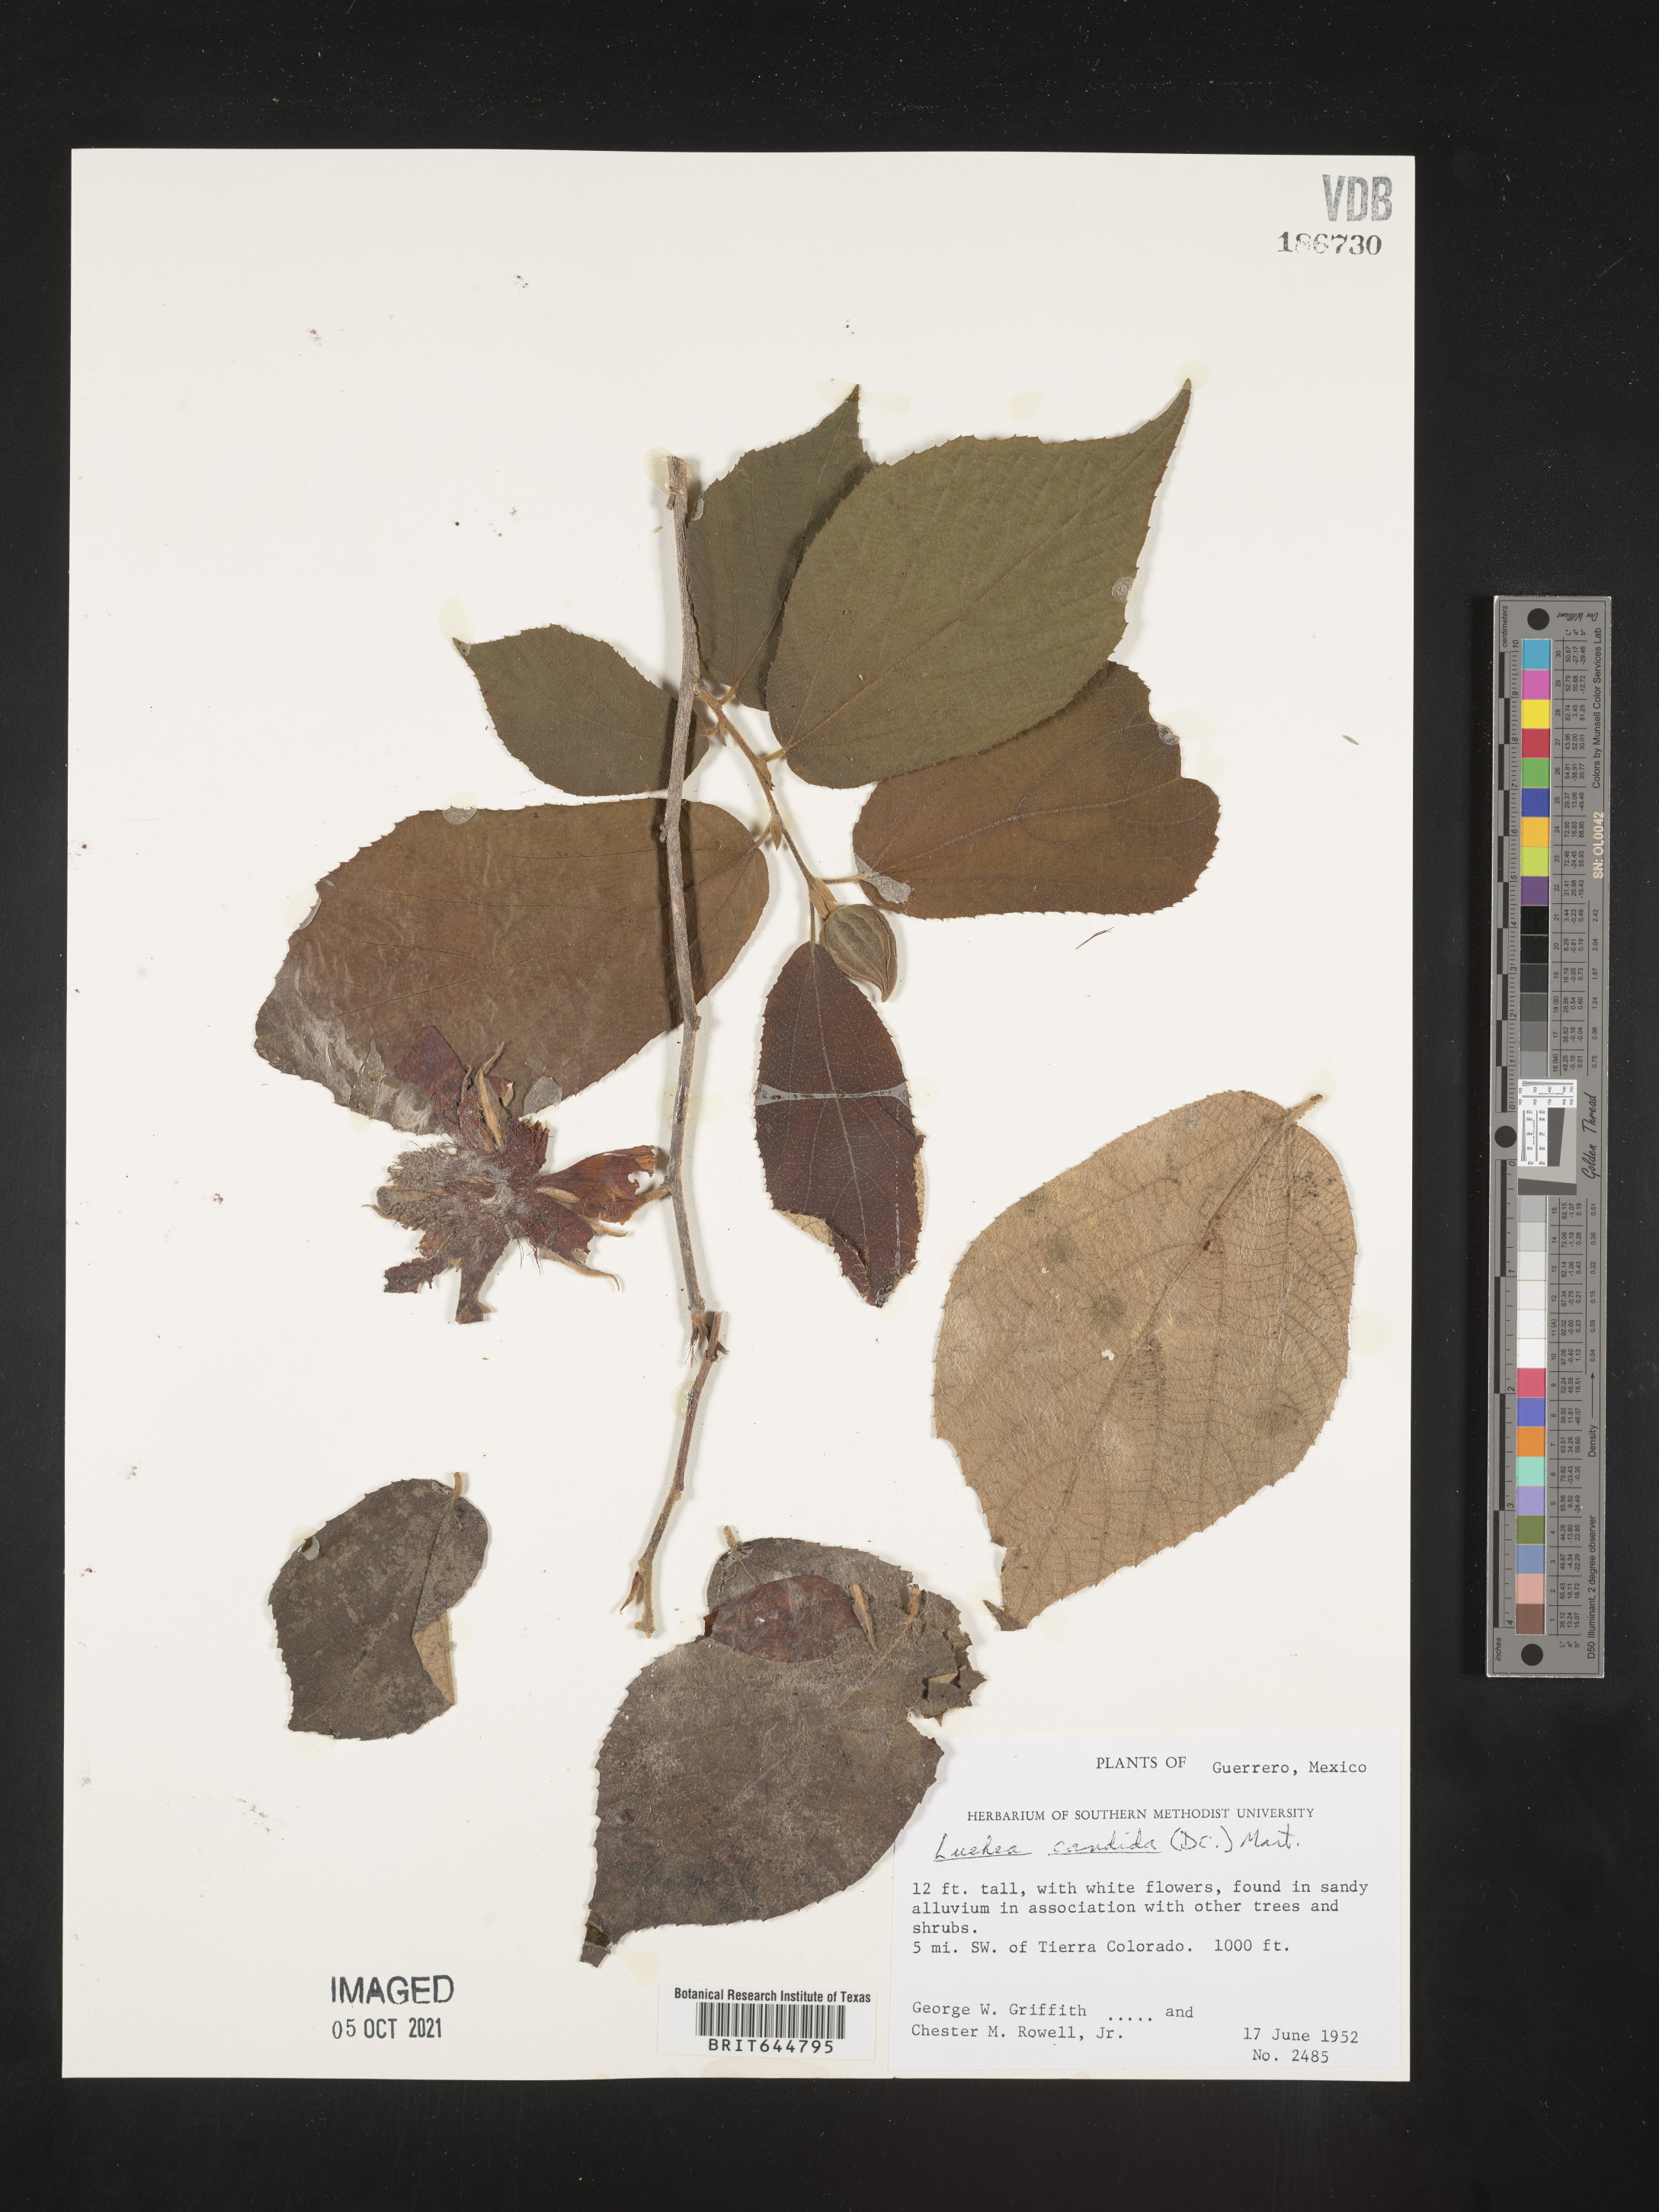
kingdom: Plantae
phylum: Tracheophyta
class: Magnoliopsida
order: Malvales
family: Malvaceae
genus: Luehea
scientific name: Luehea candida
